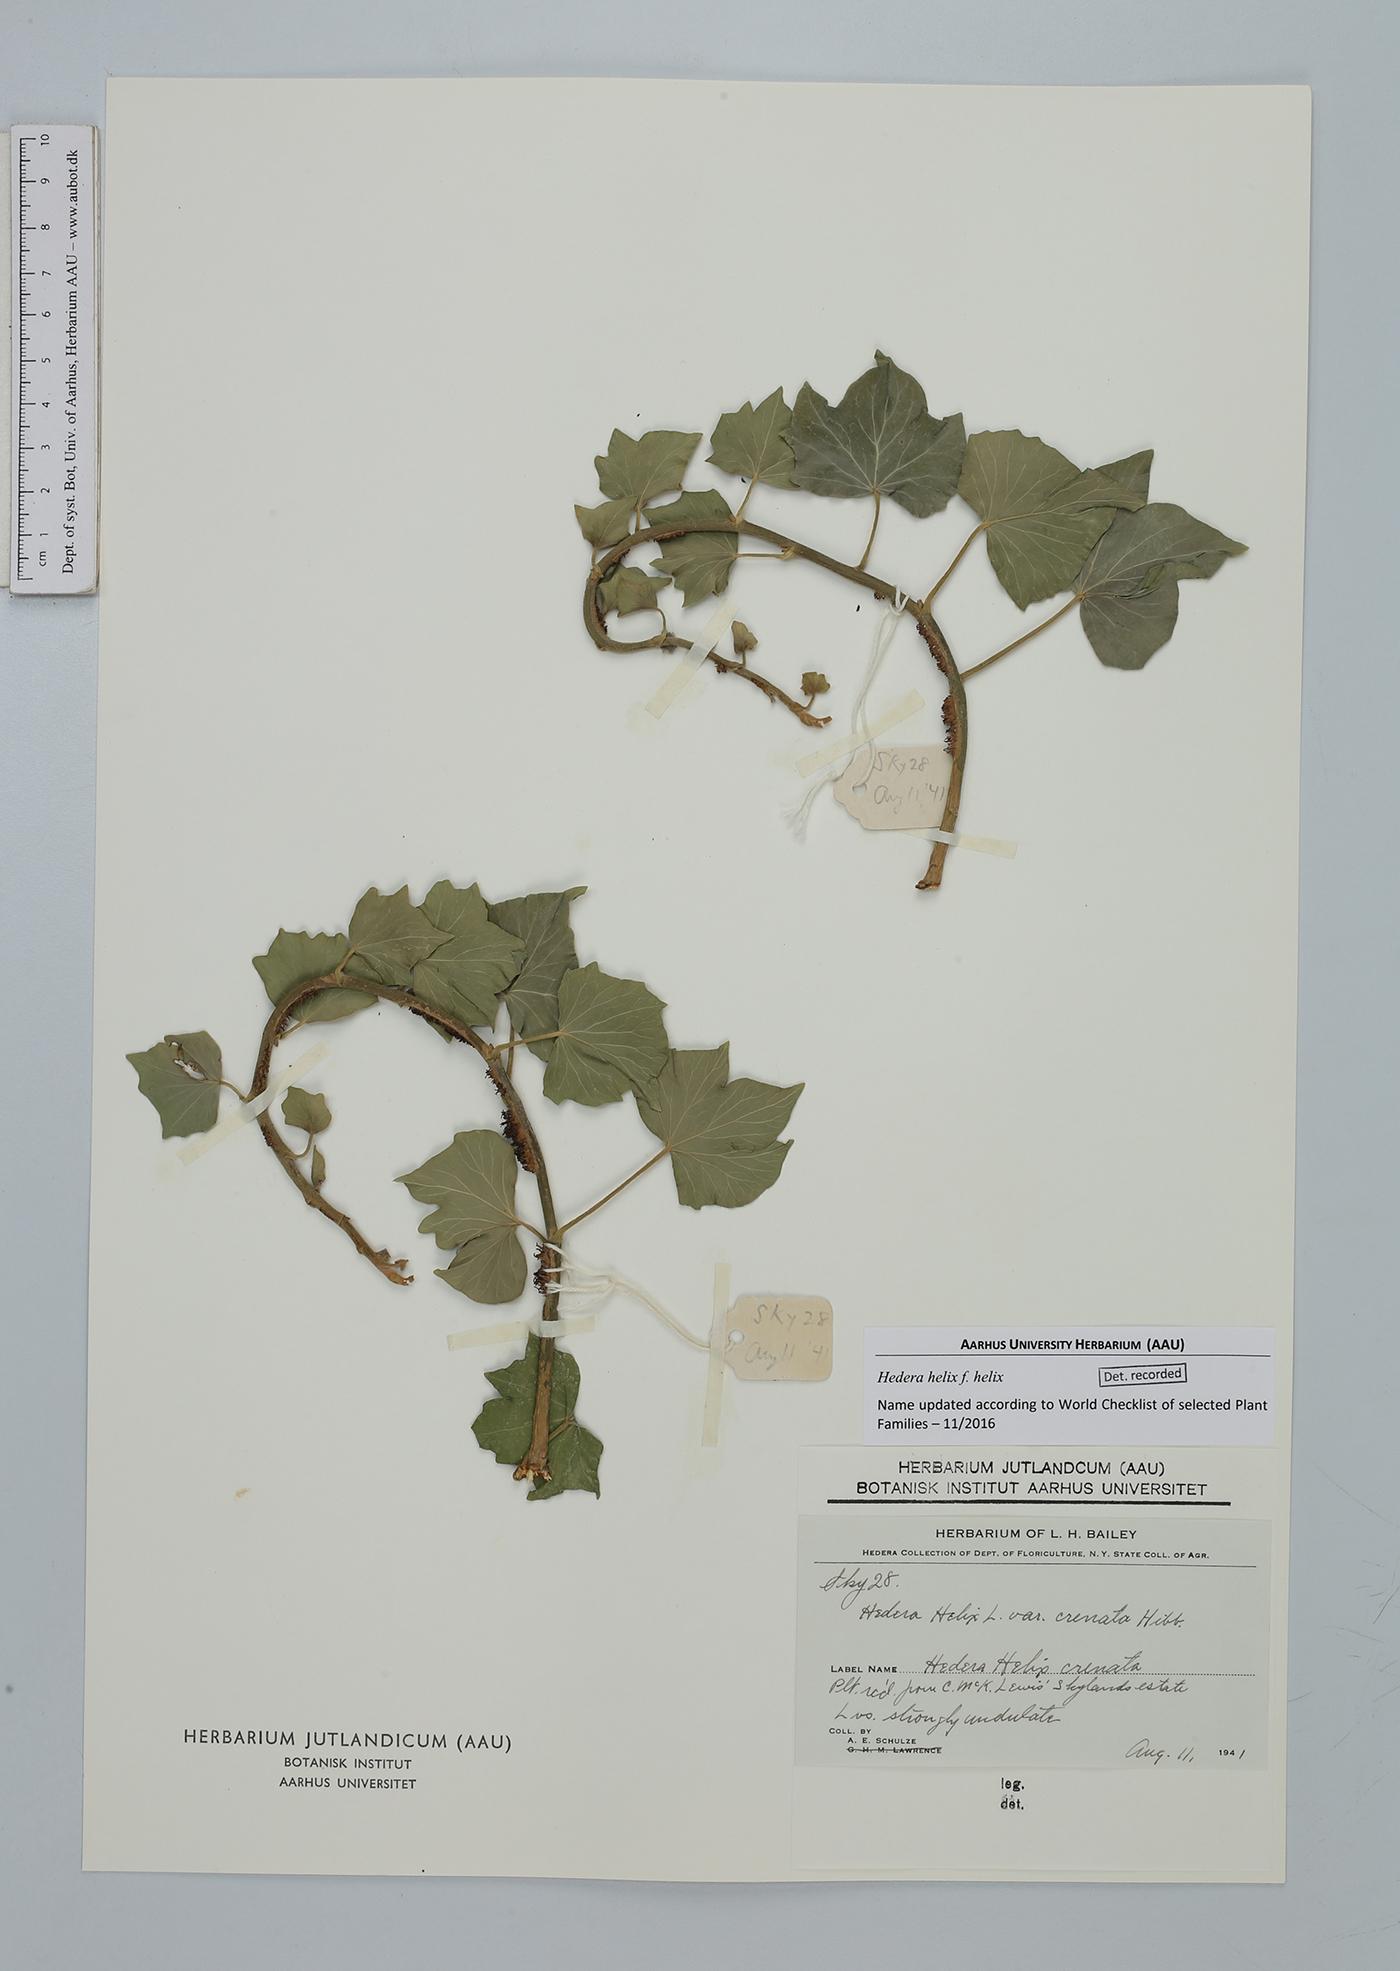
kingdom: Plantae
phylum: Tracheophyta
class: Magnoliopsida
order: Apiales
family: Araliaceae
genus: Hedera
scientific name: Hedera helix
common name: Ivy
